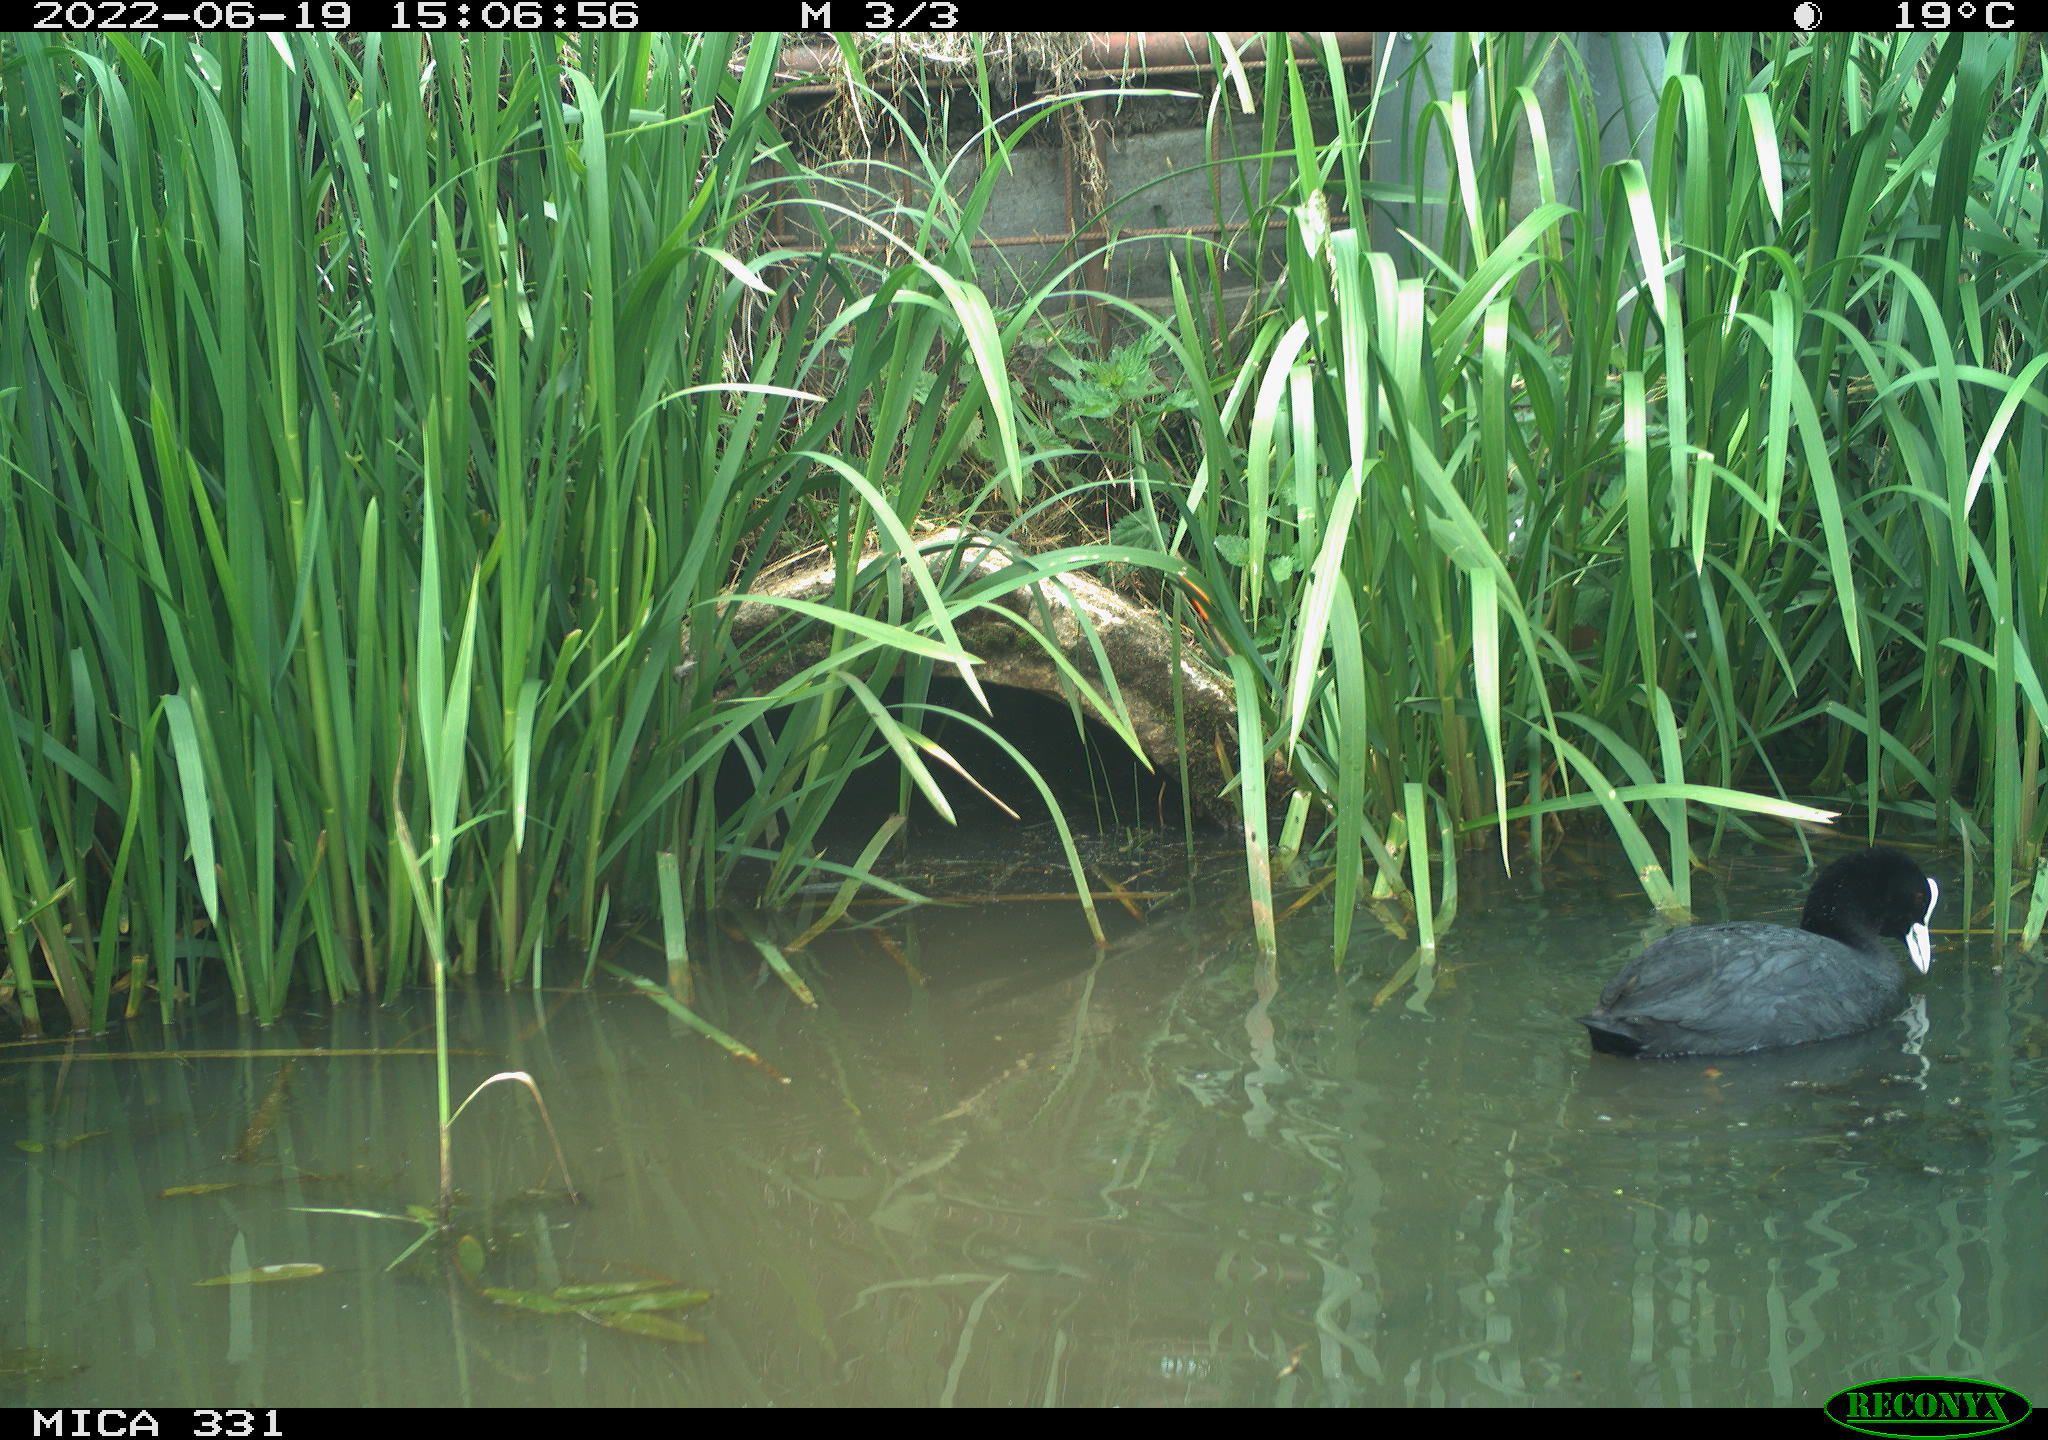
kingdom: Animalia
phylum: Chordata
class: Aves
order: Gruiformes
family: Rallidae
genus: Fulica
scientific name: Fulica atra
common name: Eurasian coot
